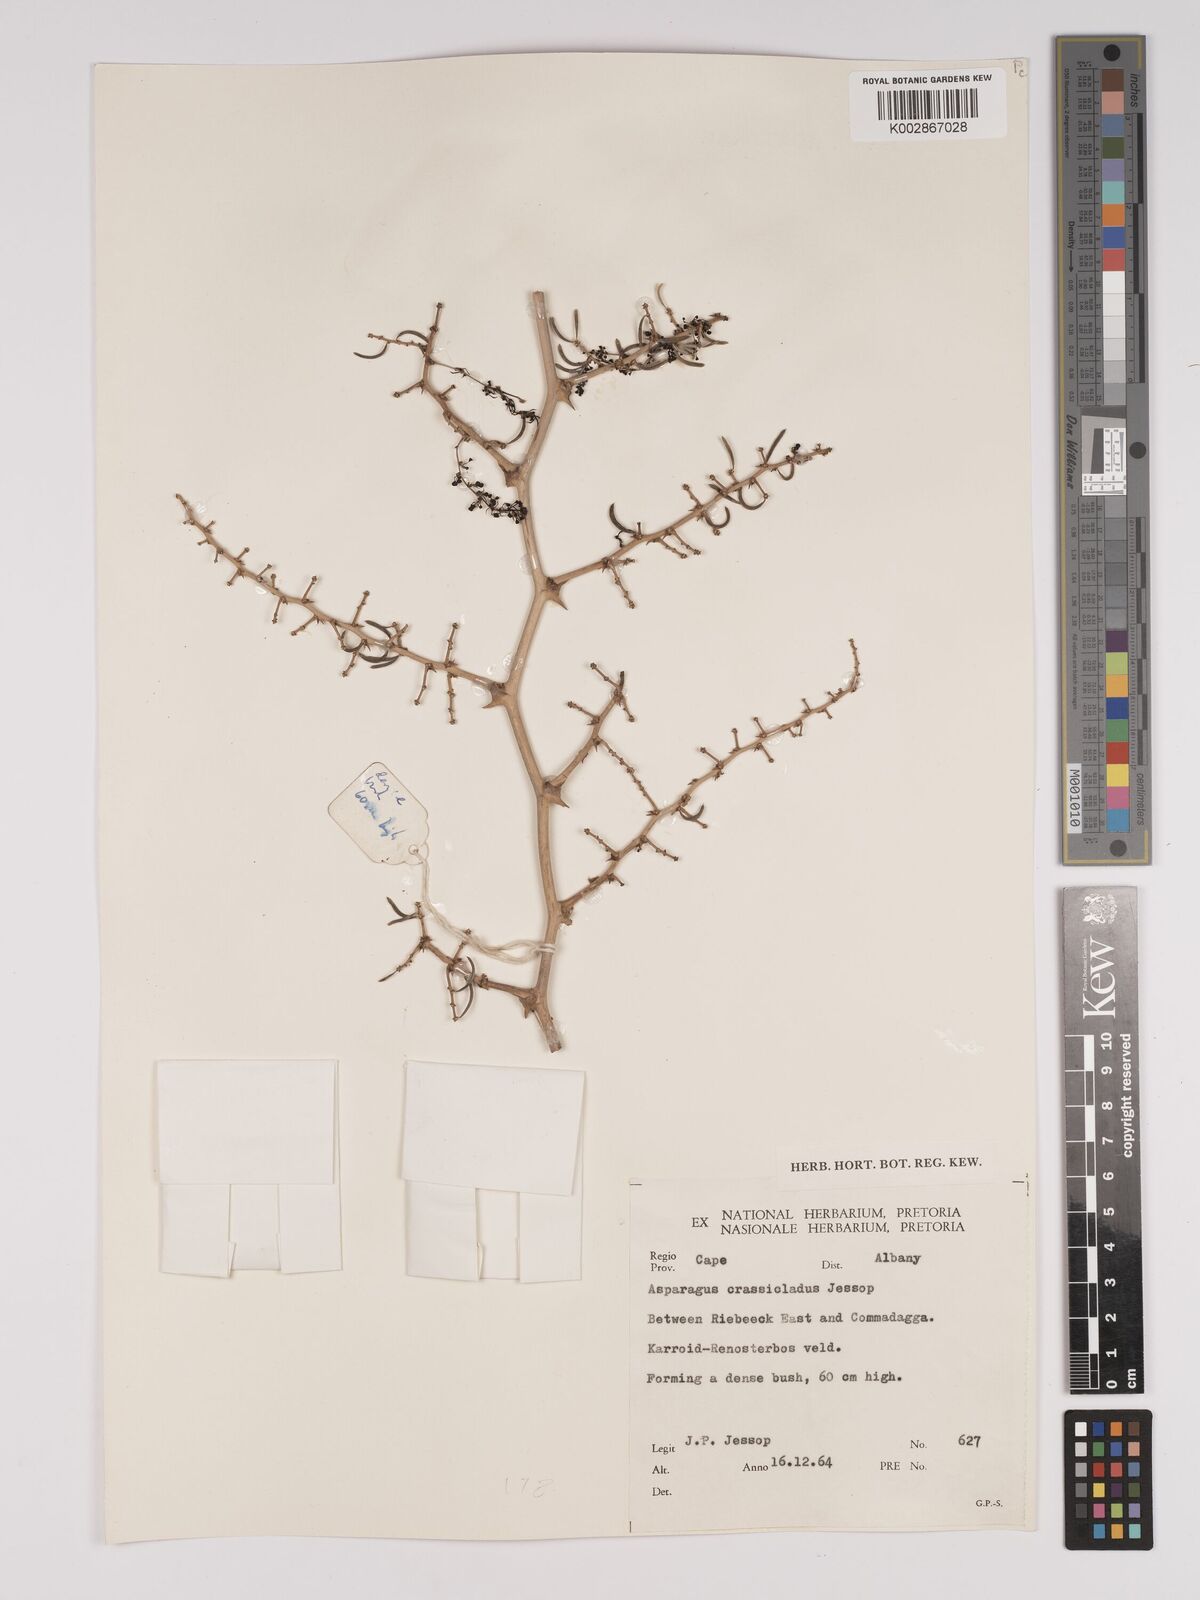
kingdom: Plantae
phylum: Tracheophyta
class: Liliopsida
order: Asparagales
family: Asparagaceae
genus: Asparagus
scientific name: Asparagus crassicladus
